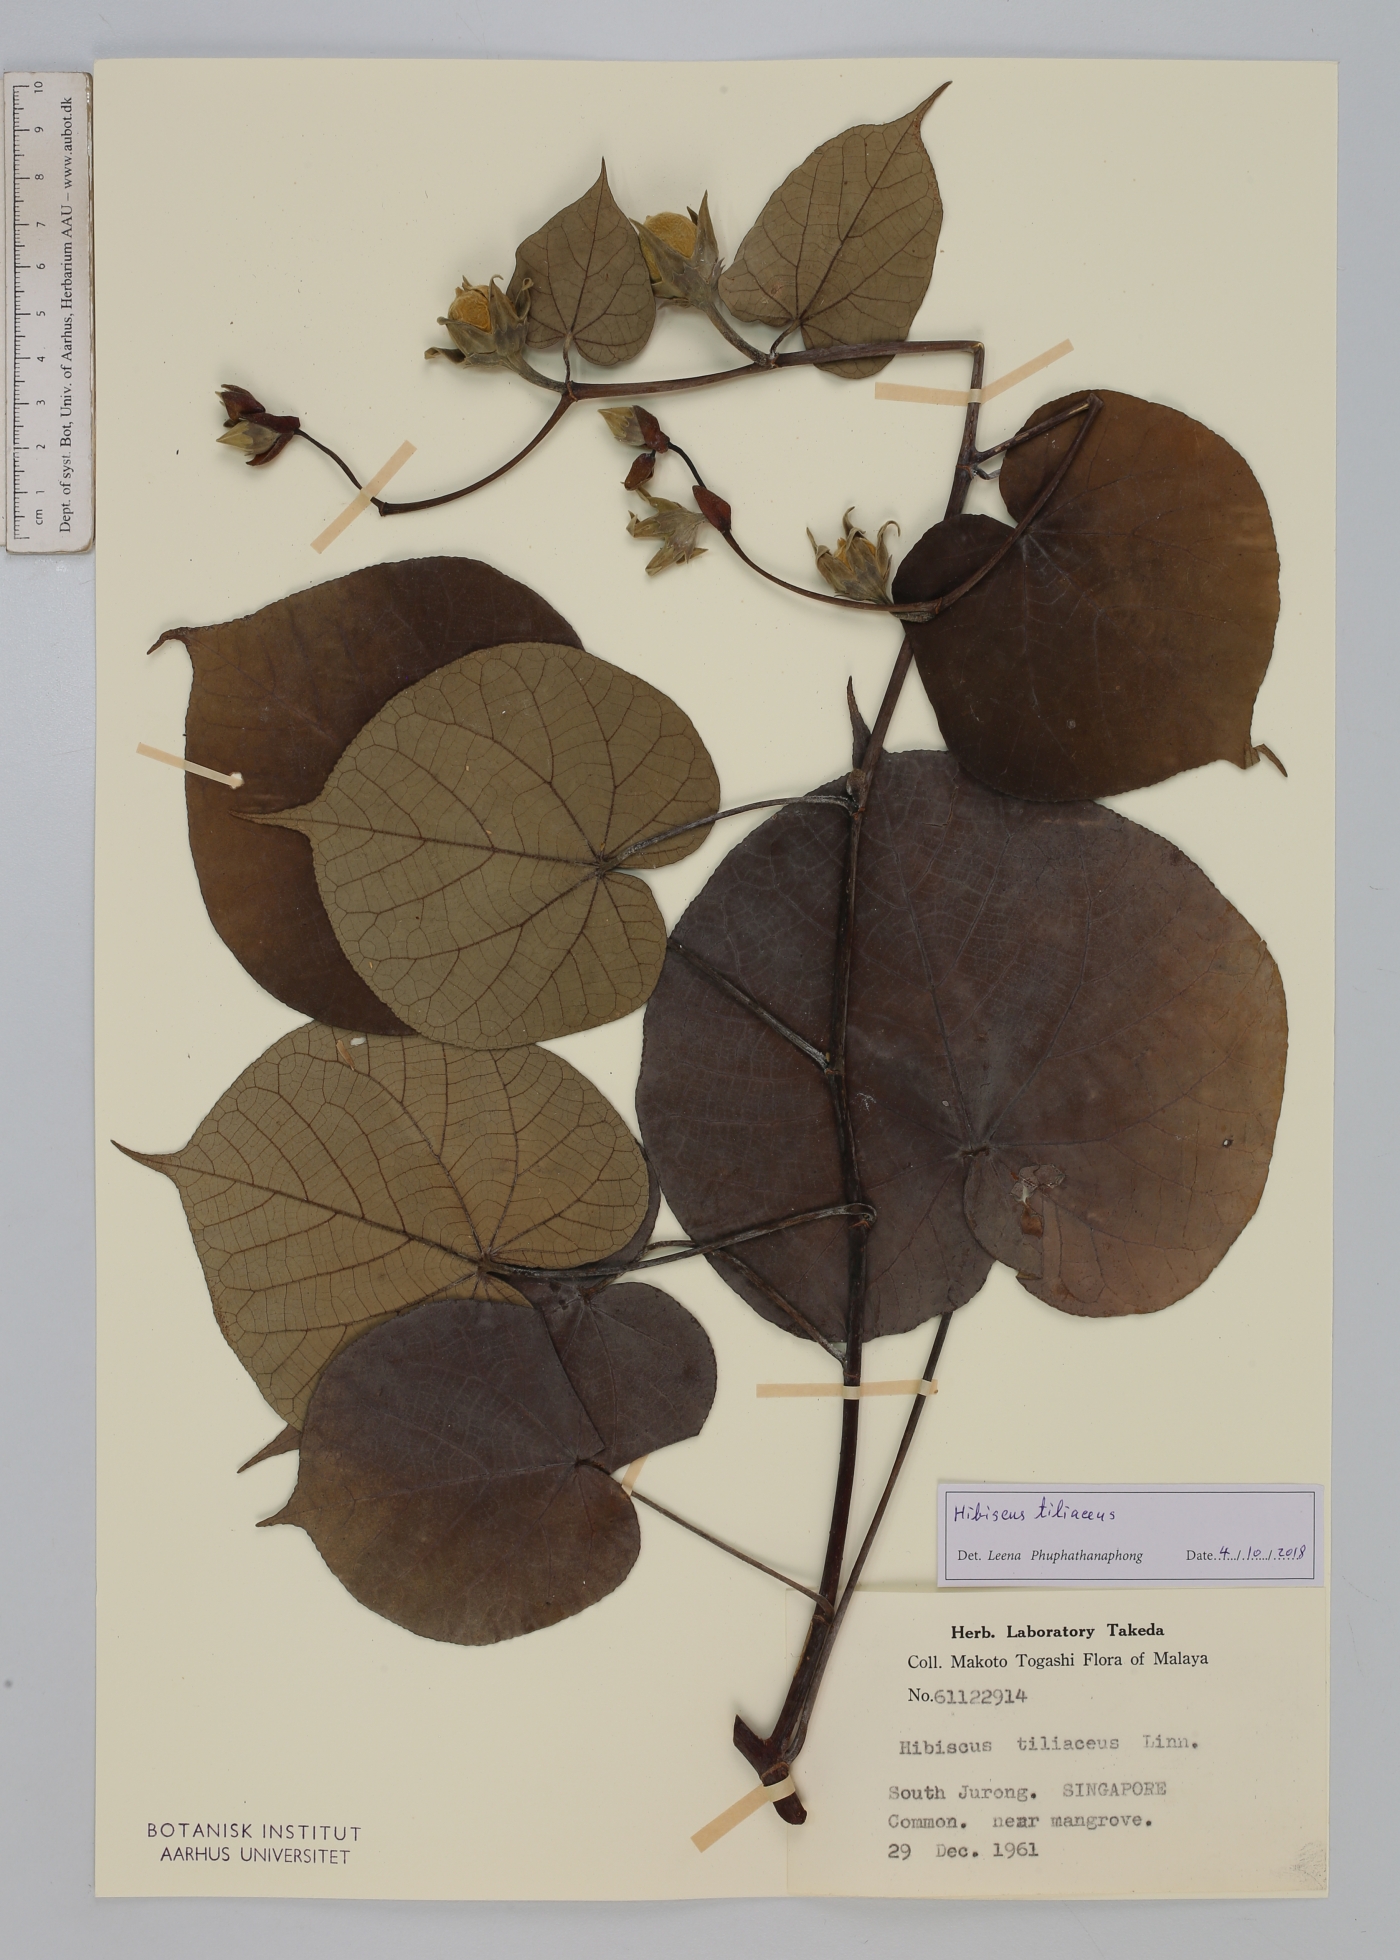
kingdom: Plantae
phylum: Tracheophyta
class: Magnoliopsida
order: Malvales
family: Malvaceae
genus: Talipariti
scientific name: Talipariti tiliaceum
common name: Sea hibiscus
